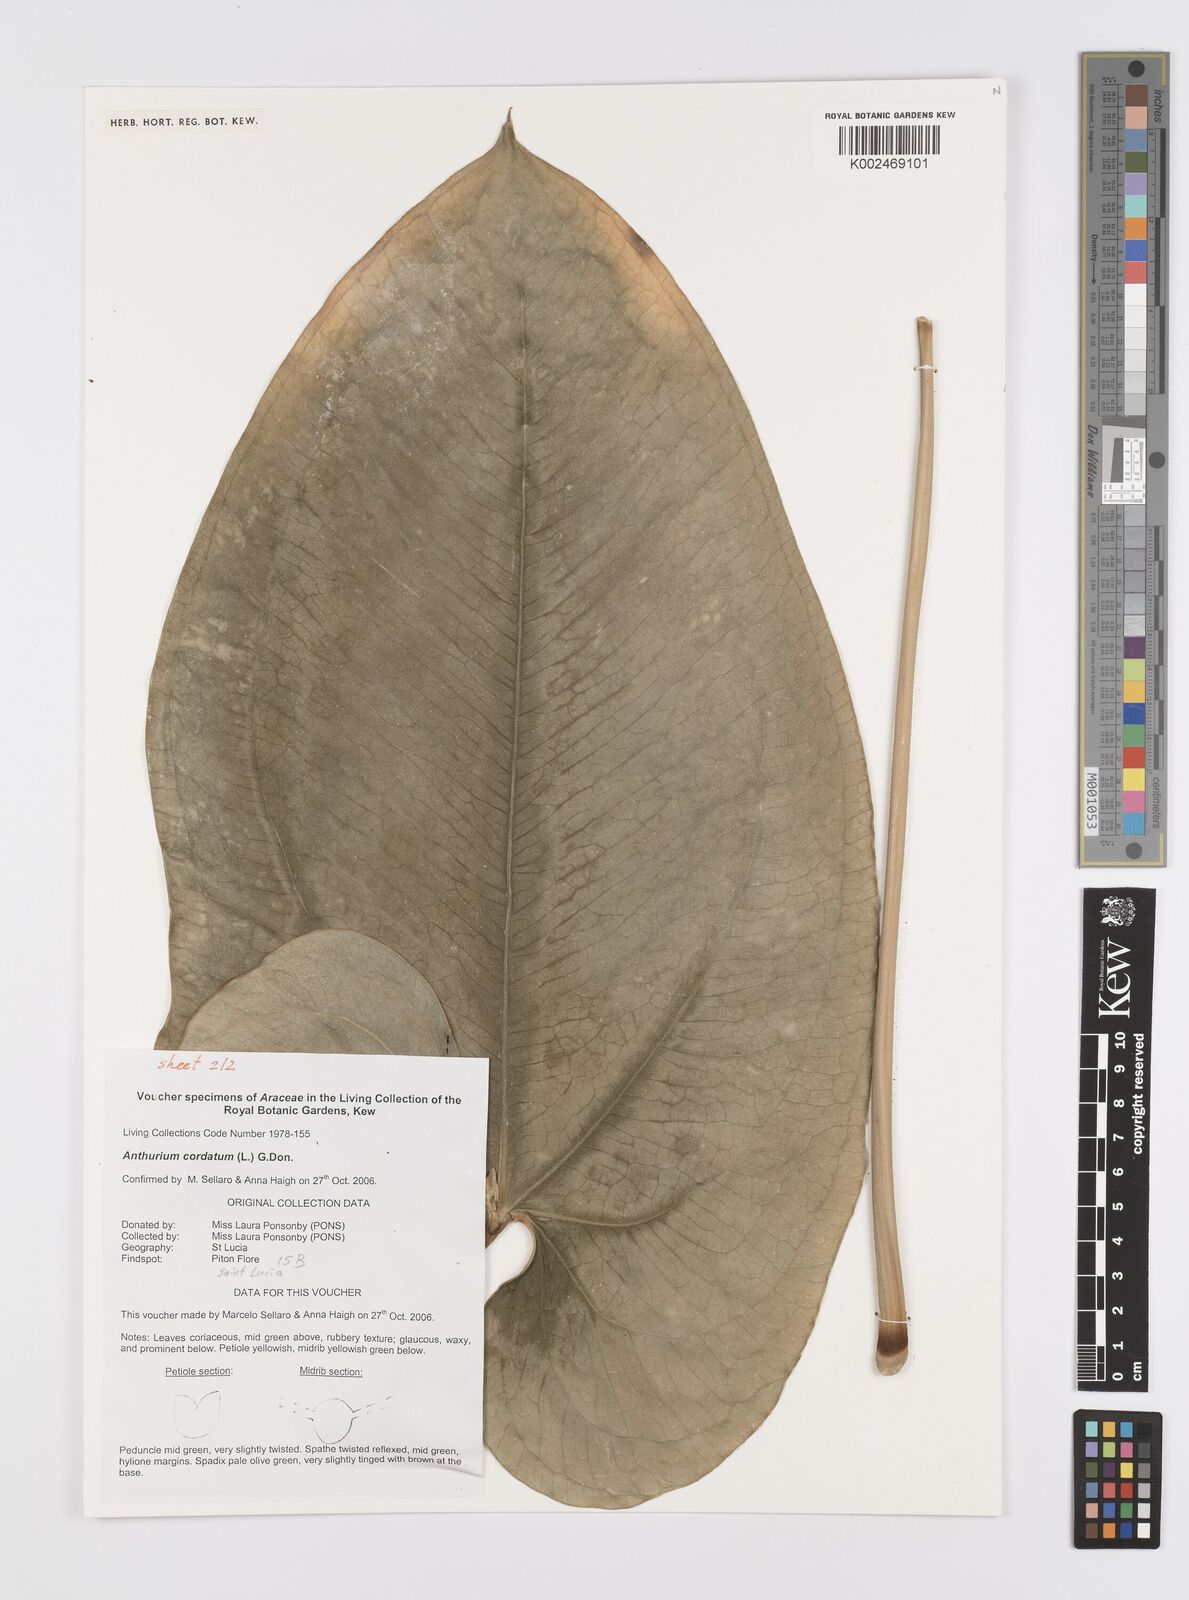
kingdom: Plantae
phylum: Tracheophyta
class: Liliopsida
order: Alismatales
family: Araceae
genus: Anthurium
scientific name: Anthurium cordatum
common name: Monkey tail
